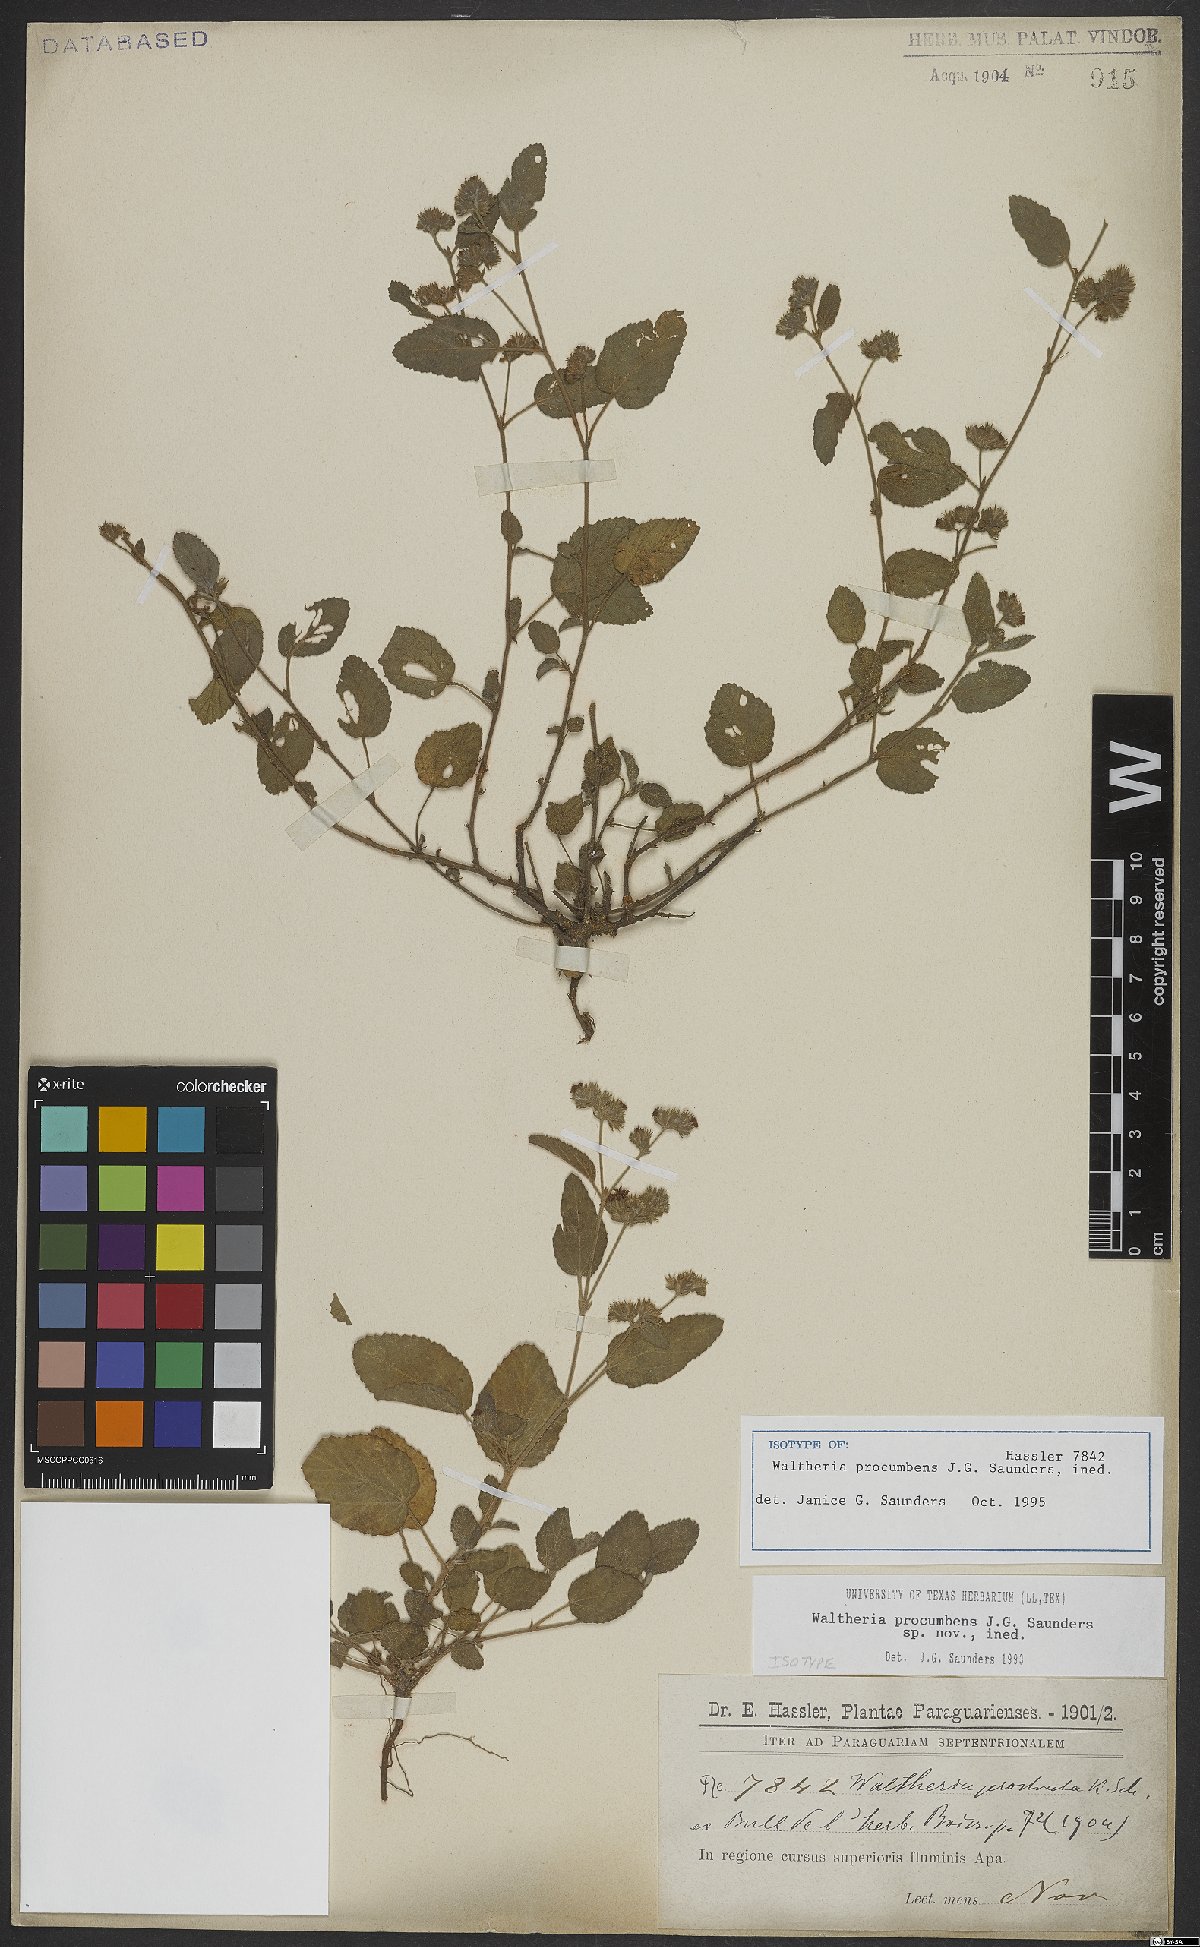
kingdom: Plantae
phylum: Tracheophyta
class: Magnoliopsida
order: Malvales
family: Malvaceae
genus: Waltheria
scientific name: Waltheria procumbens
